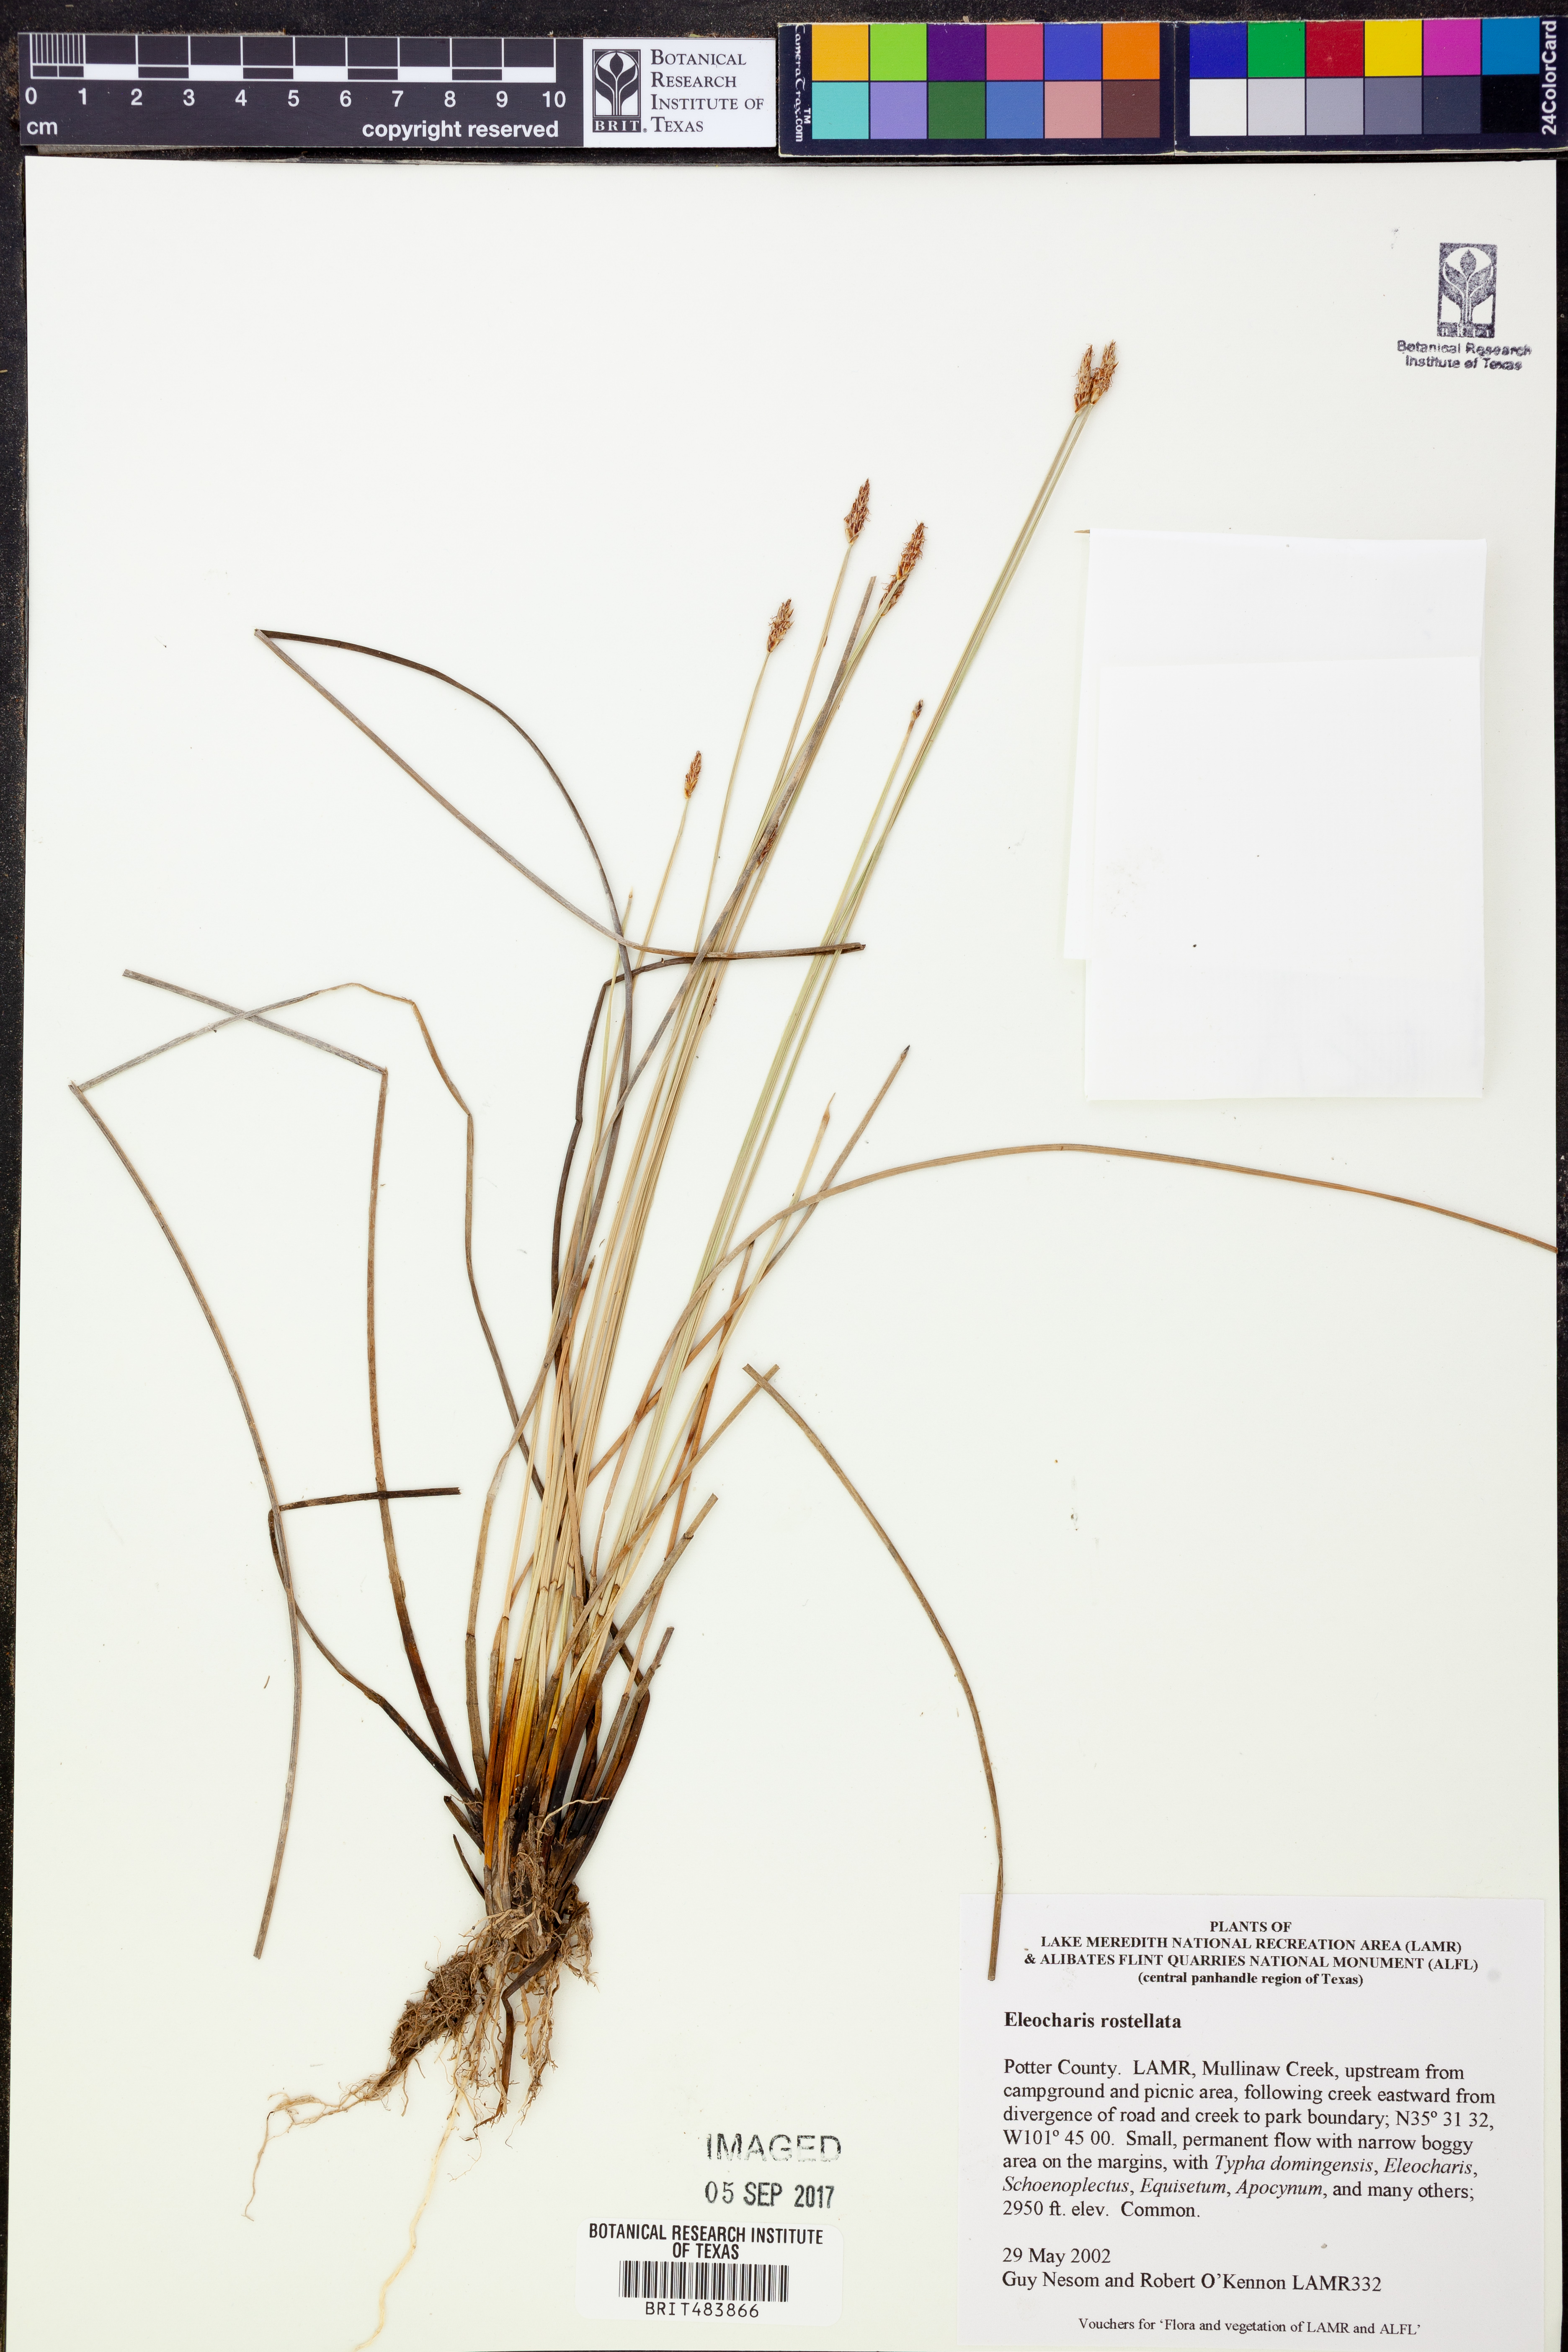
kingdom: Plantae
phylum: Tracheophyta
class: Liliopsida
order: Poales
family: Cyperaceae
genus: Eleocharis
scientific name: Eleocharis rostellata
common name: Walking sedge
